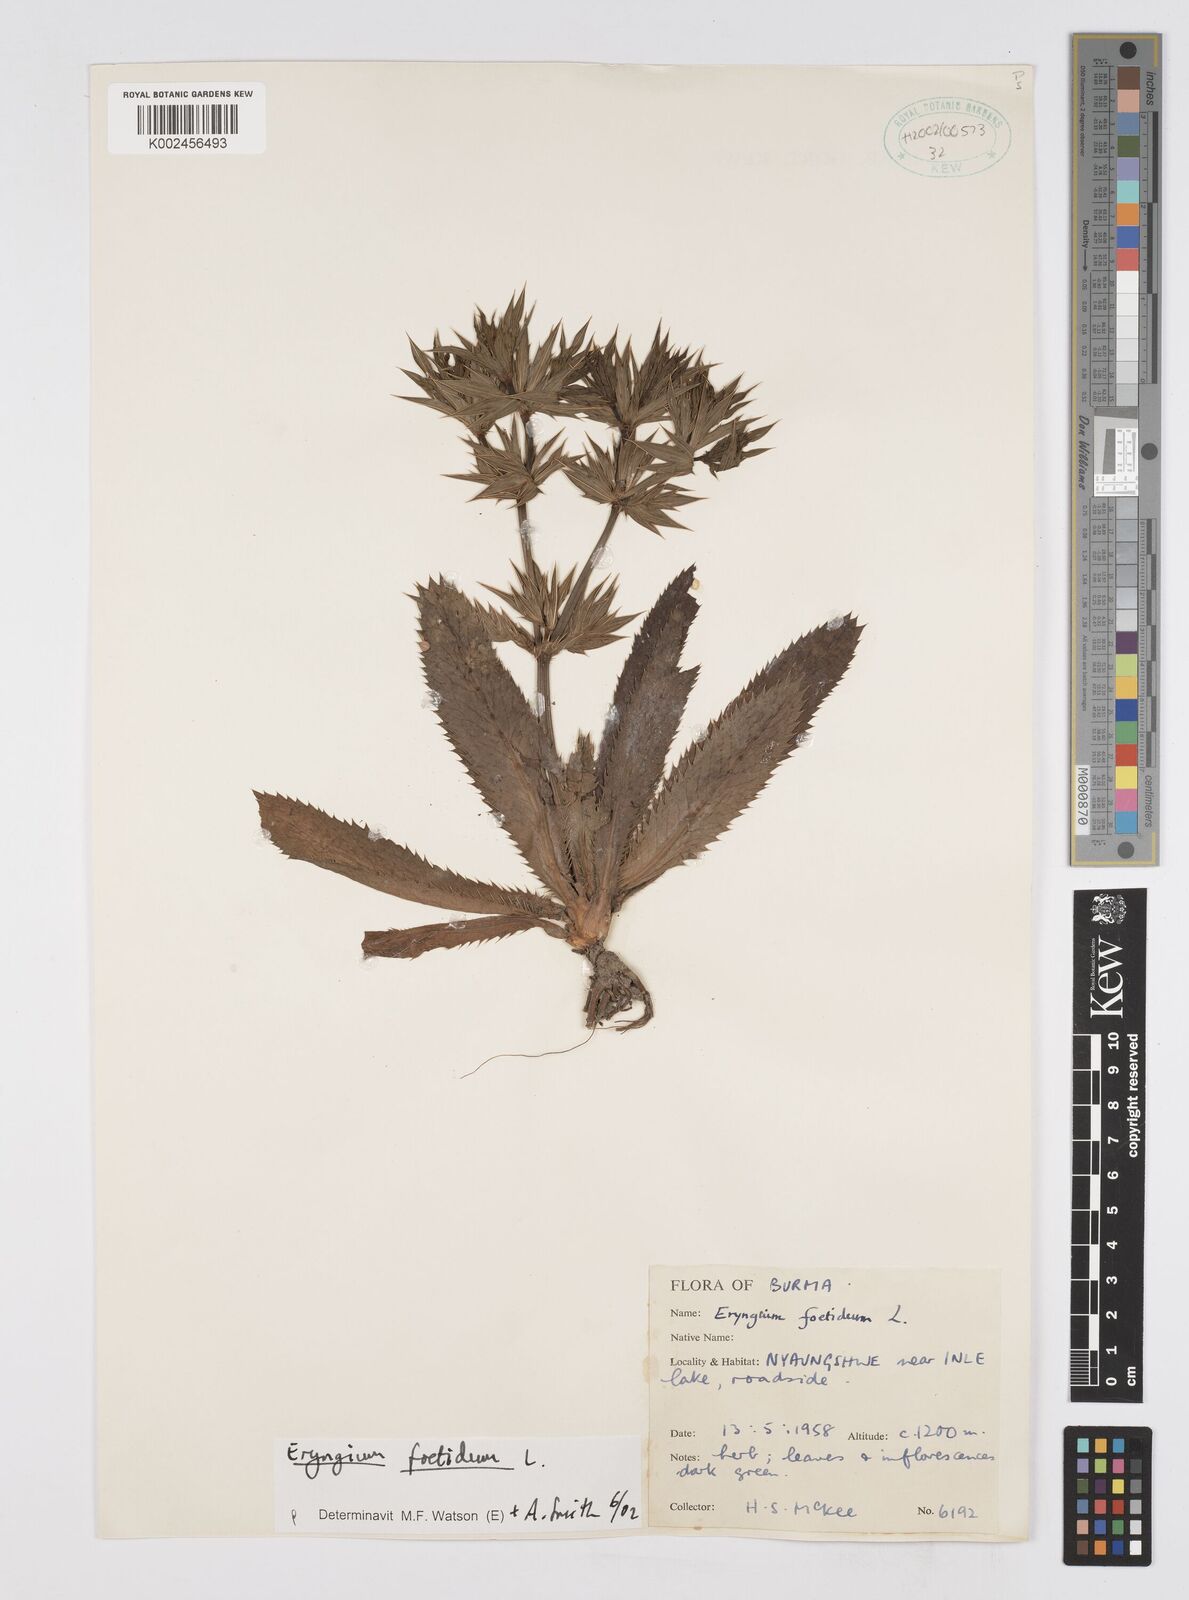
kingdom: Plantae
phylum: Tracheophyta
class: Magnoliopsida
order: Apiales
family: Apiaceae
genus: Eryngium
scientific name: Eryngium foetidum
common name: Fitweed
